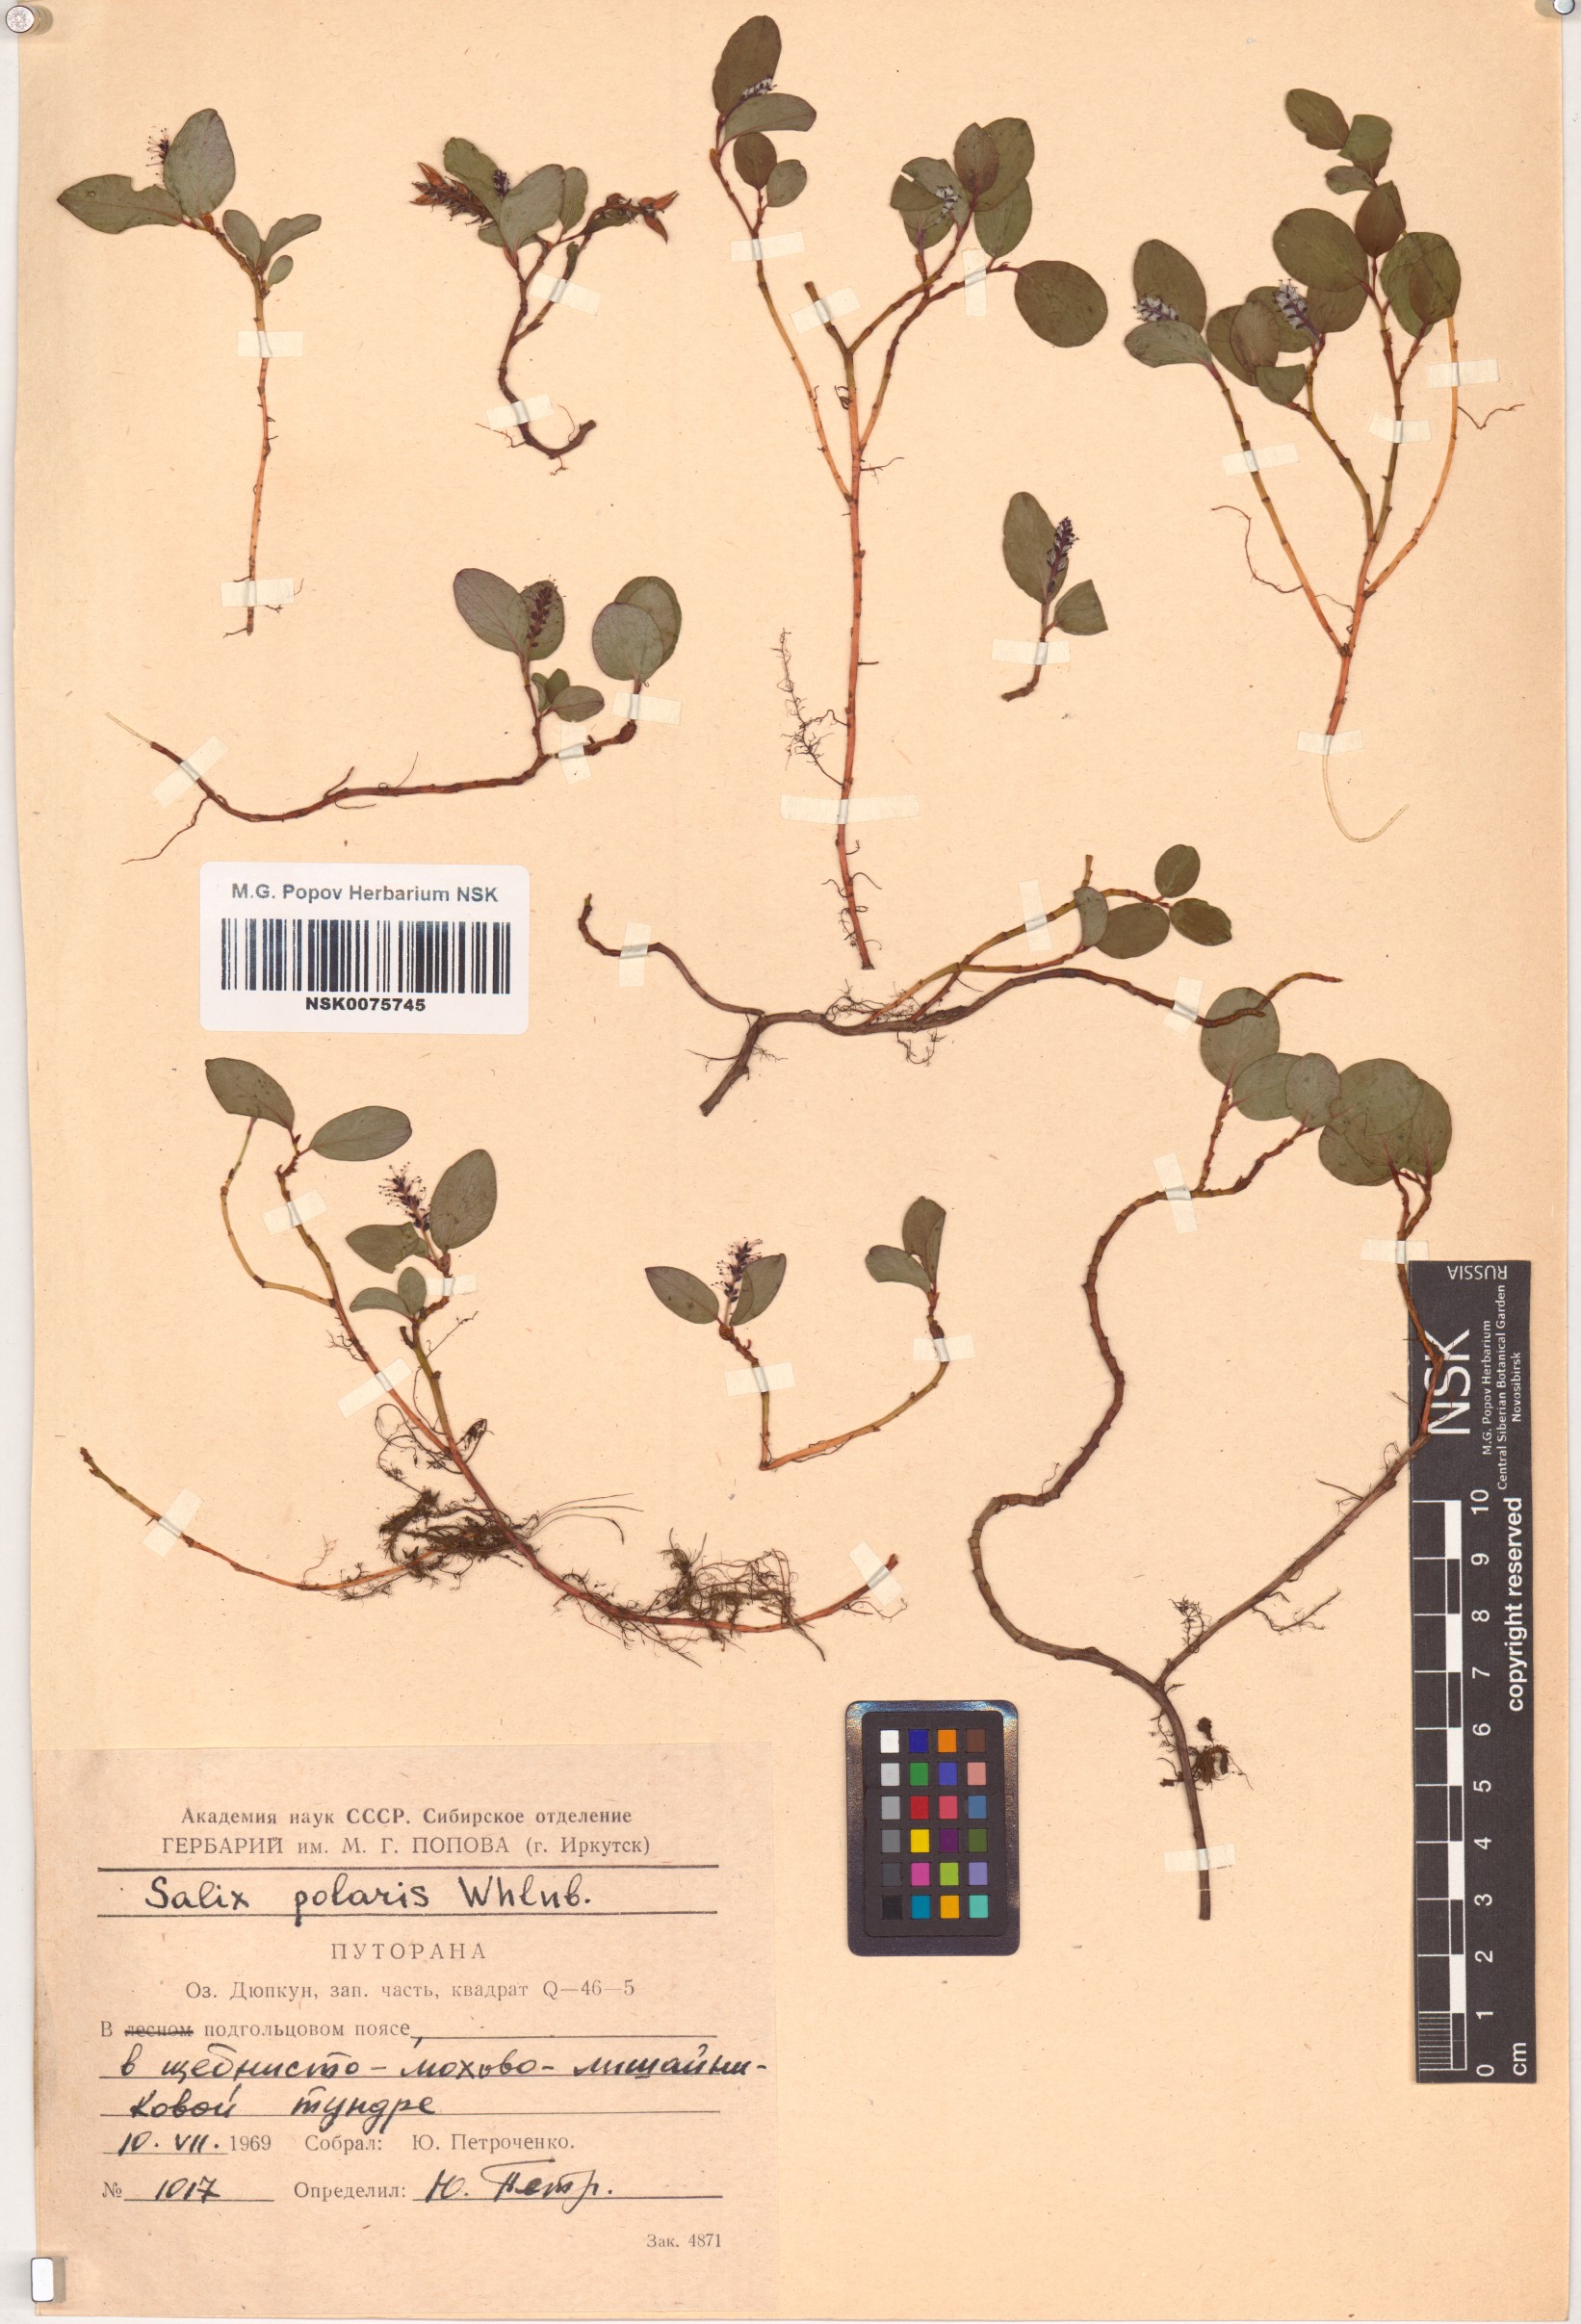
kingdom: Plantae
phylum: Tracheophyta
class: Magnoliopsida
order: Malpighiales
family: Salicaceae
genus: Salix
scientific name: Salix polaris
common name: Polar willow
